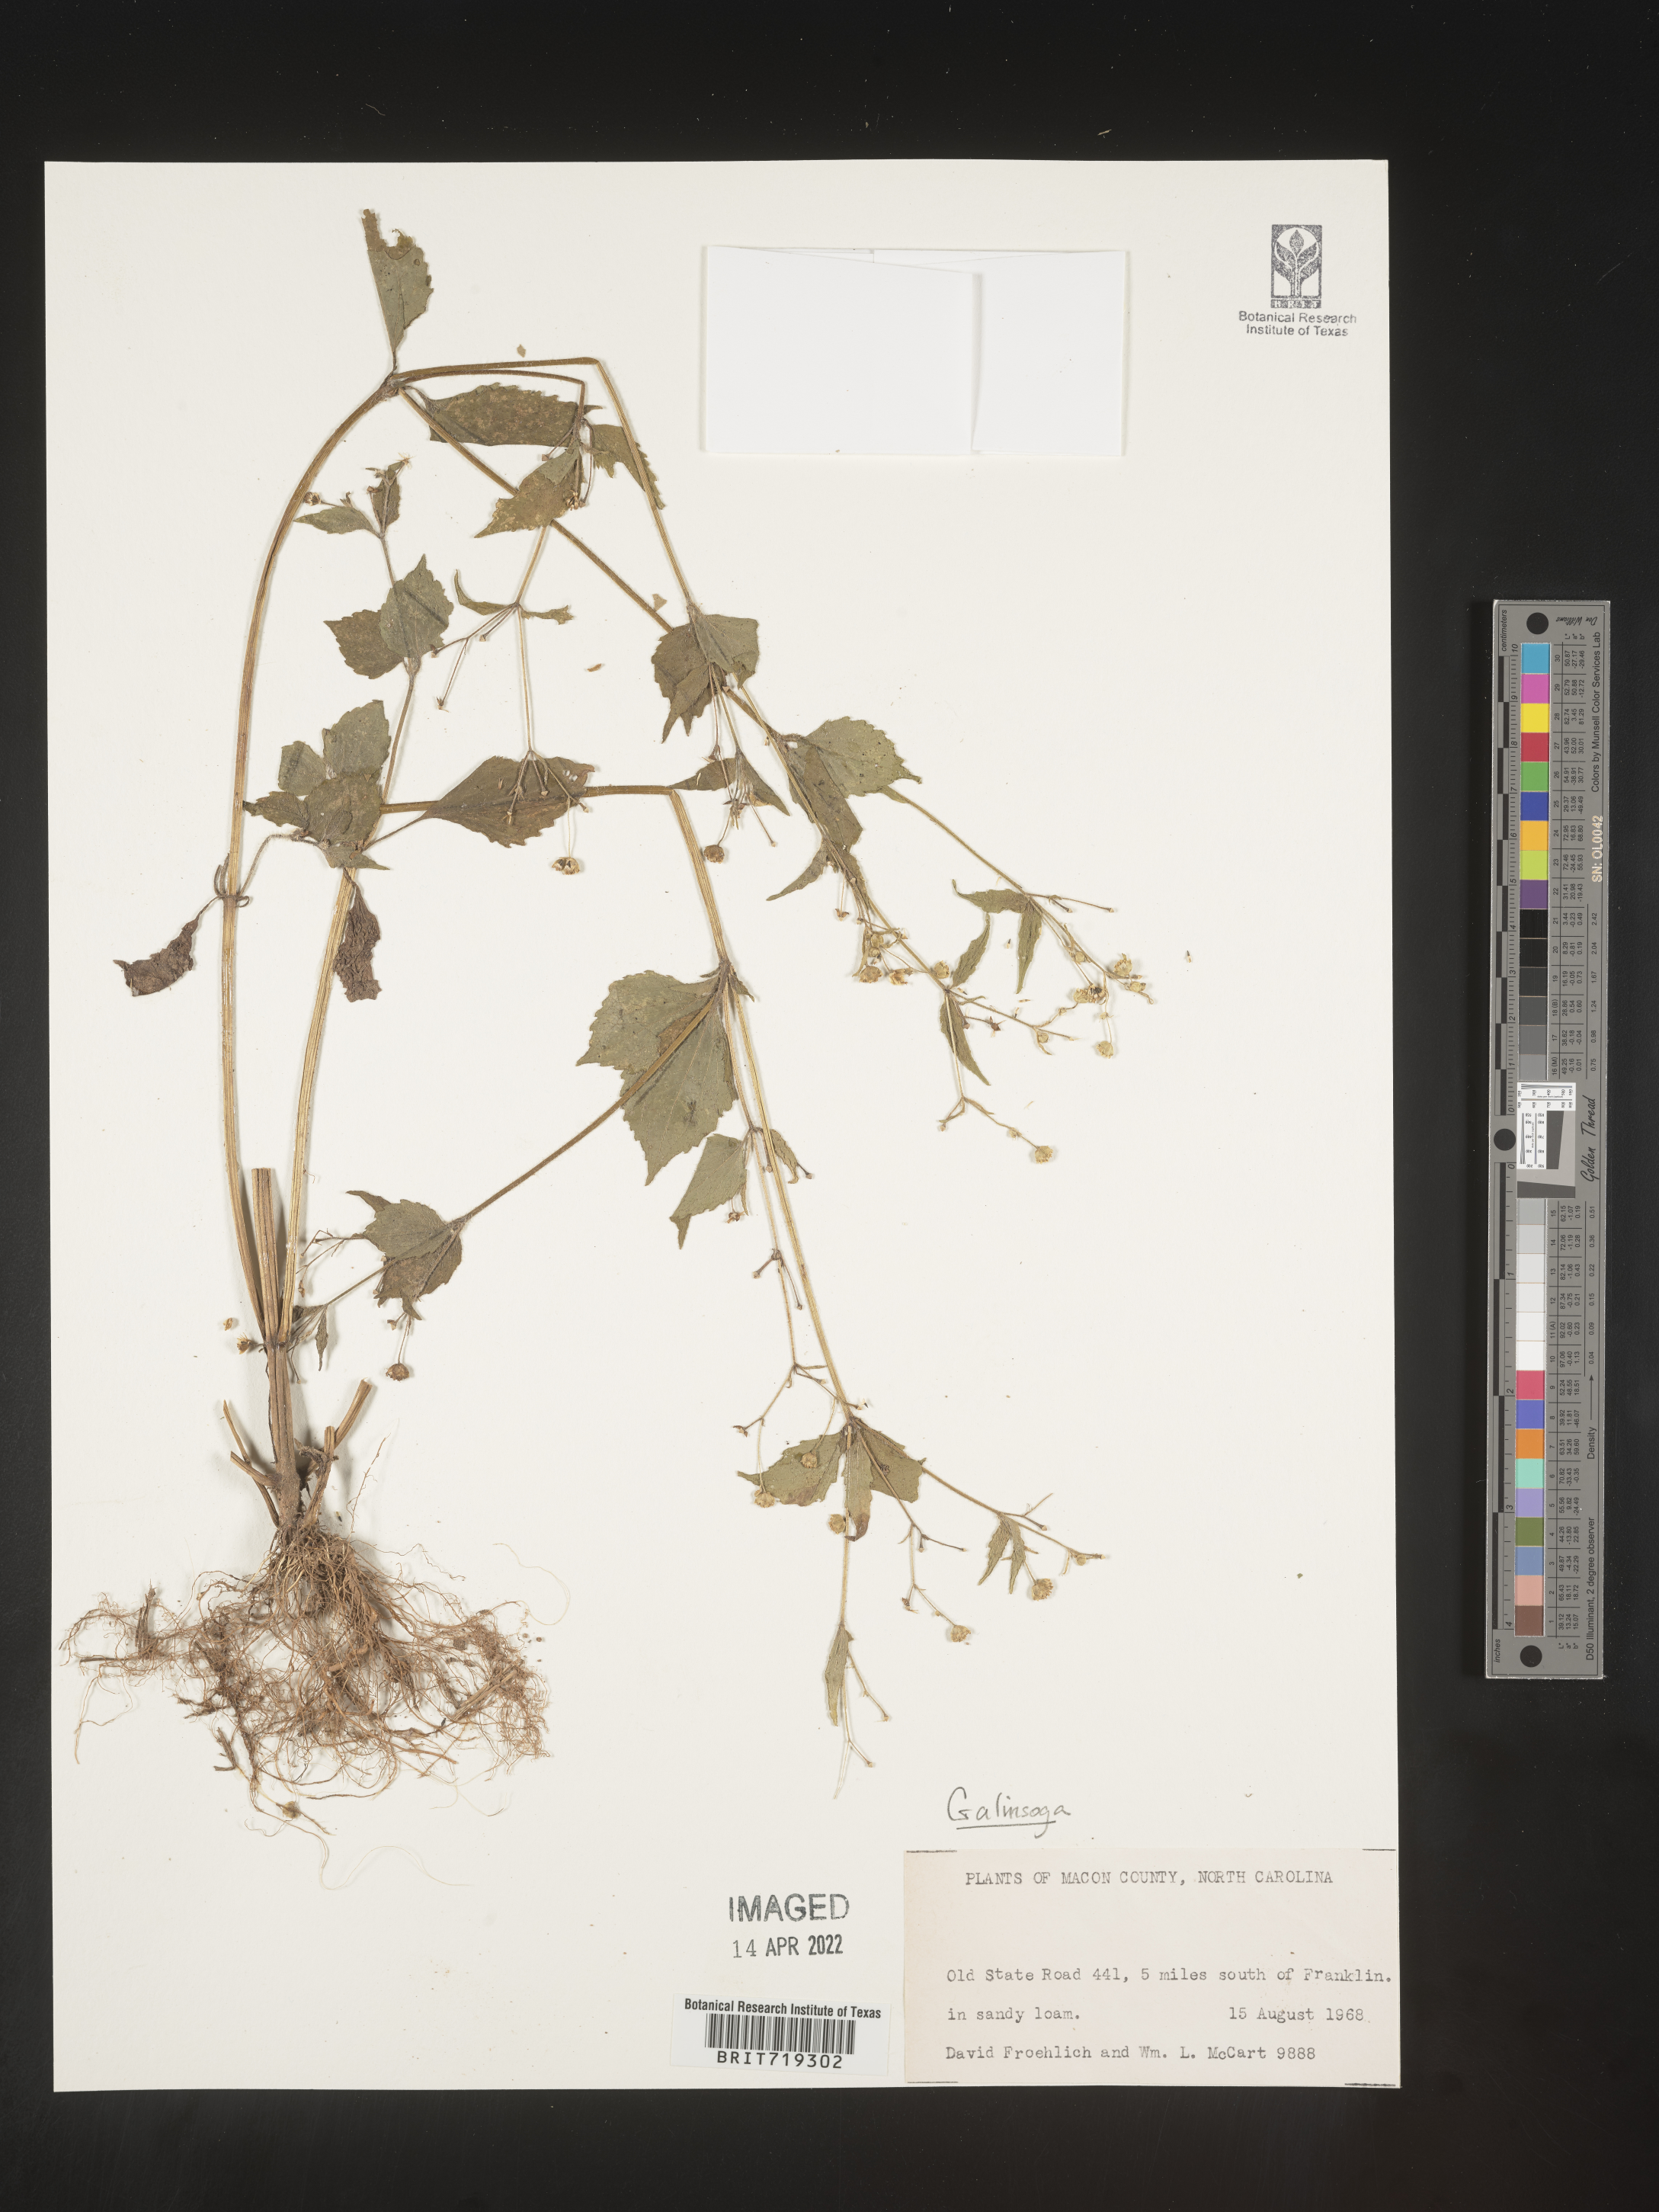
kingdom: Plantae
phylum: Tracheophyta
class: Magnoliopsida
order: Asterales
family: Asteraceae
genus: Galinsoga
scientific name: Galinsoga
